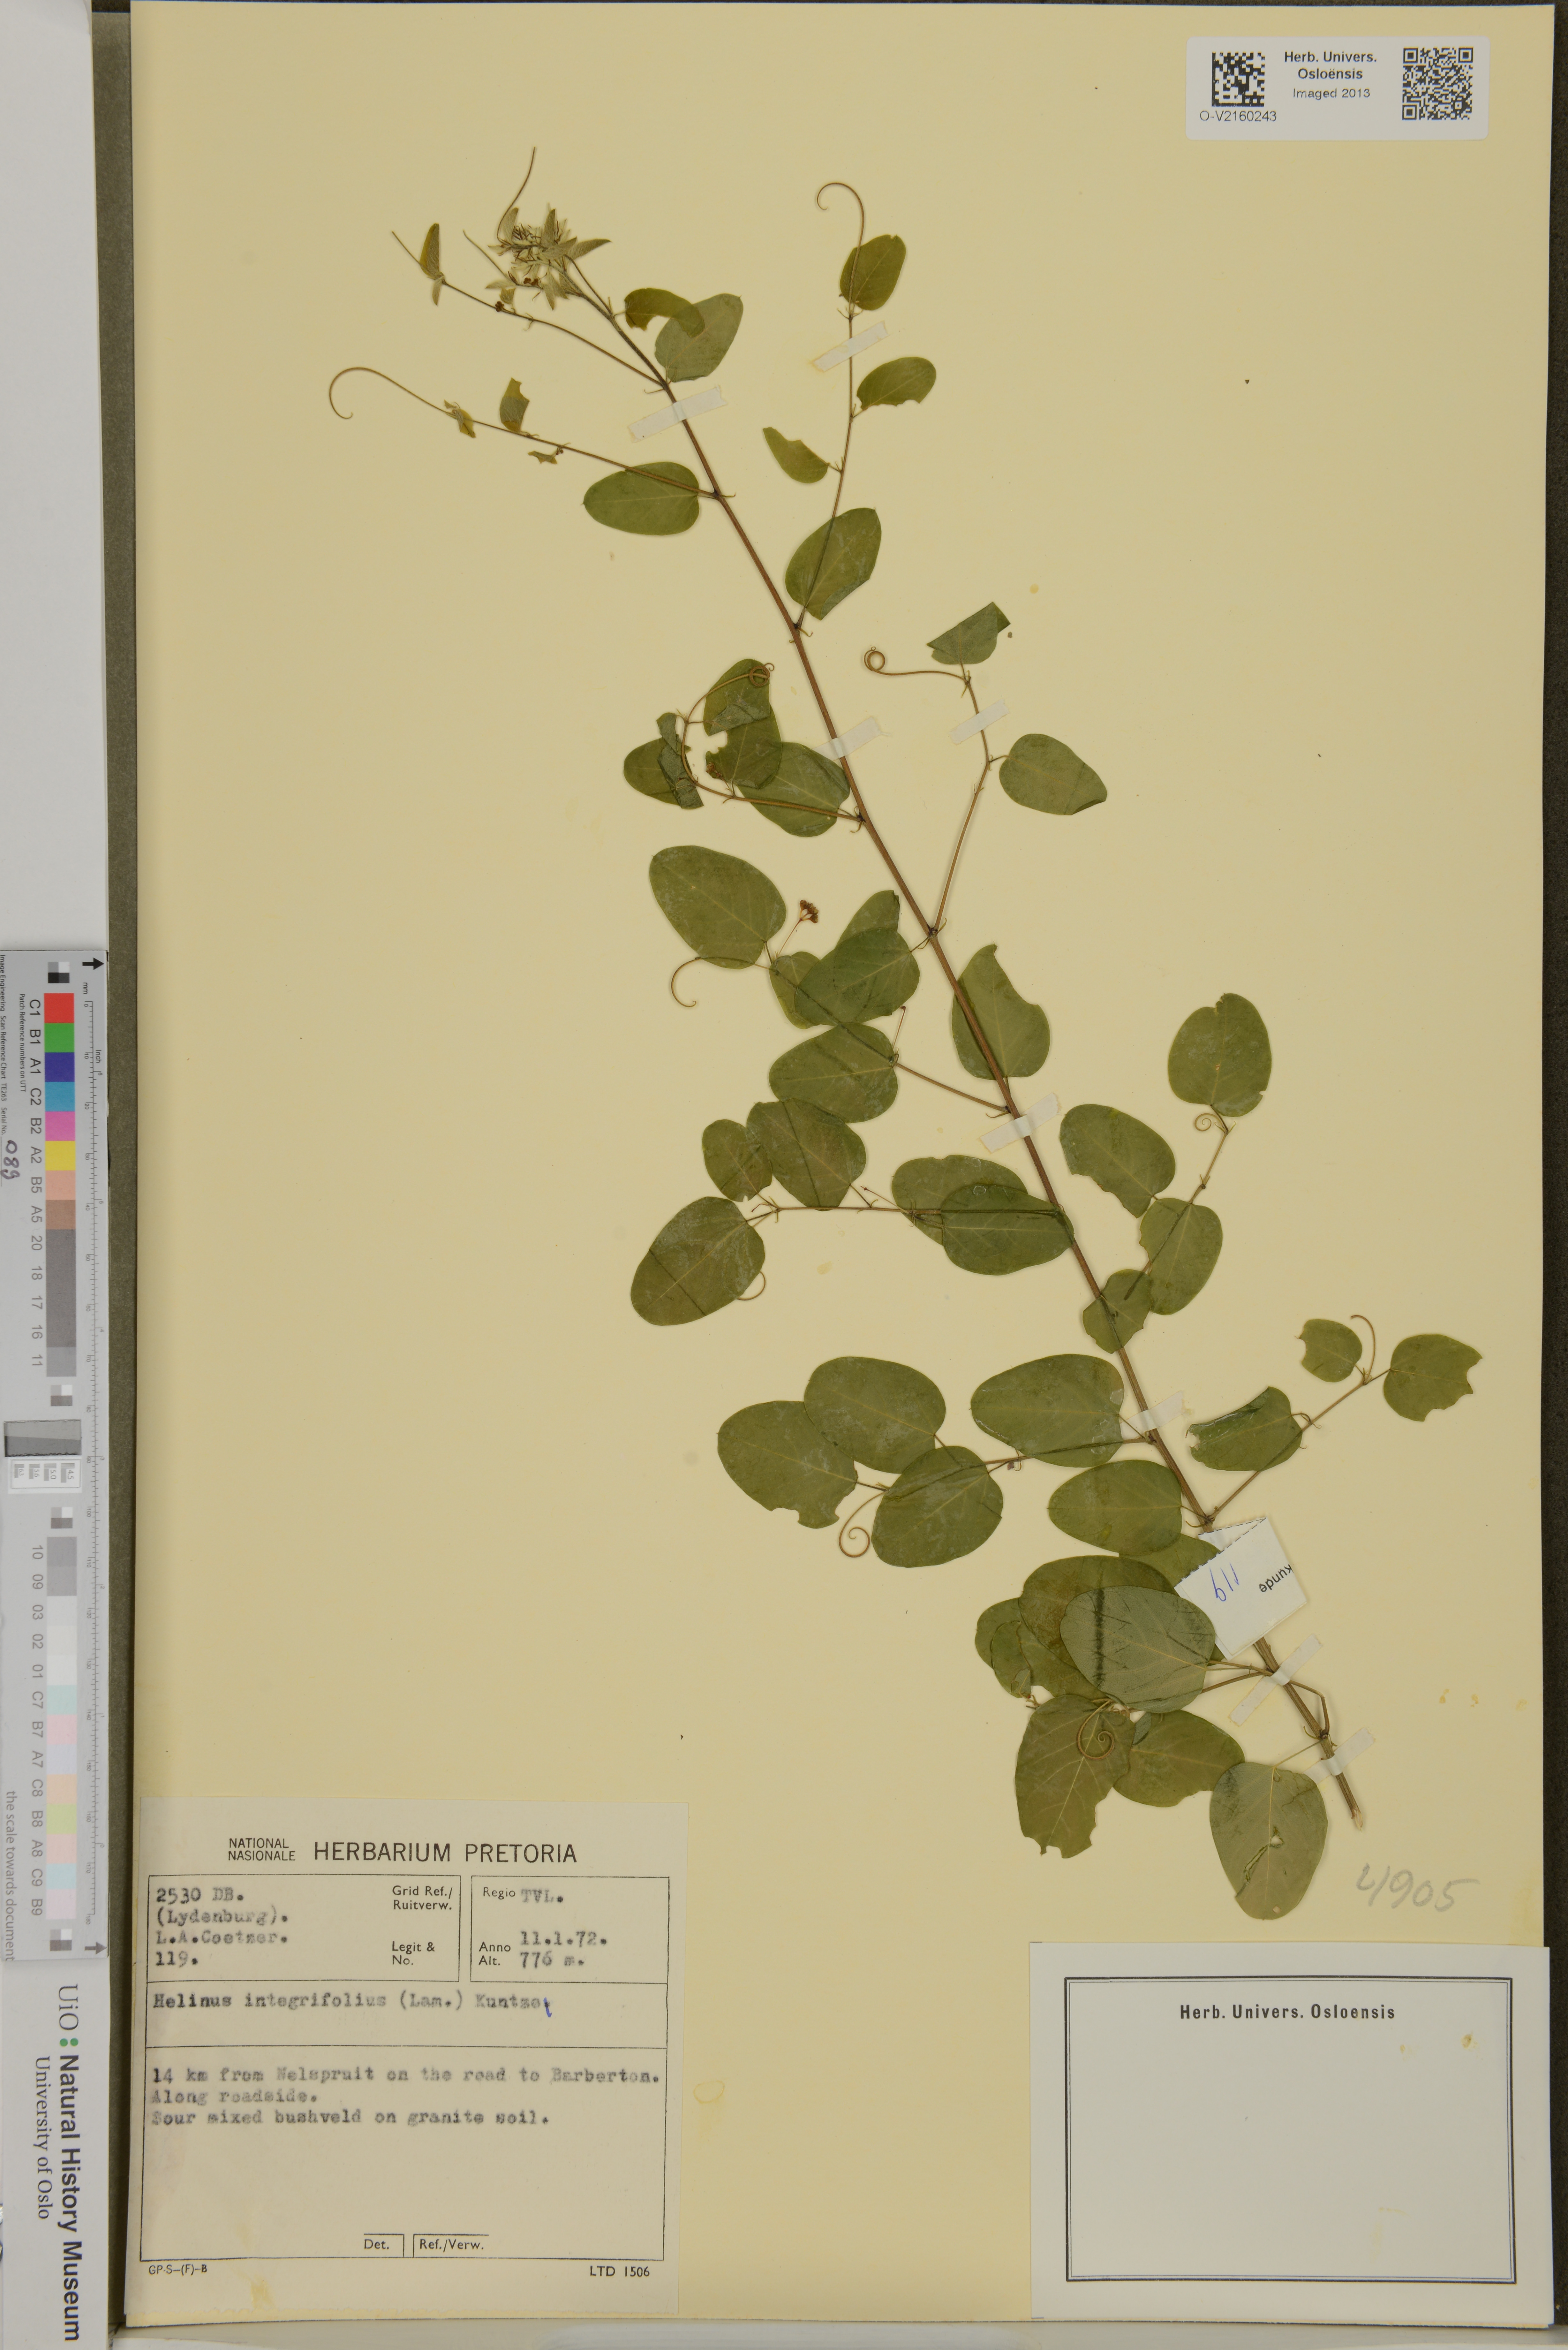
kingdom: Plantae
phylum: Tracheophyta
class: Magnoliopsida
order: Rosales
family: Rhamnaceae
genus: Helinus
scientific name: Helinus integrifolius
